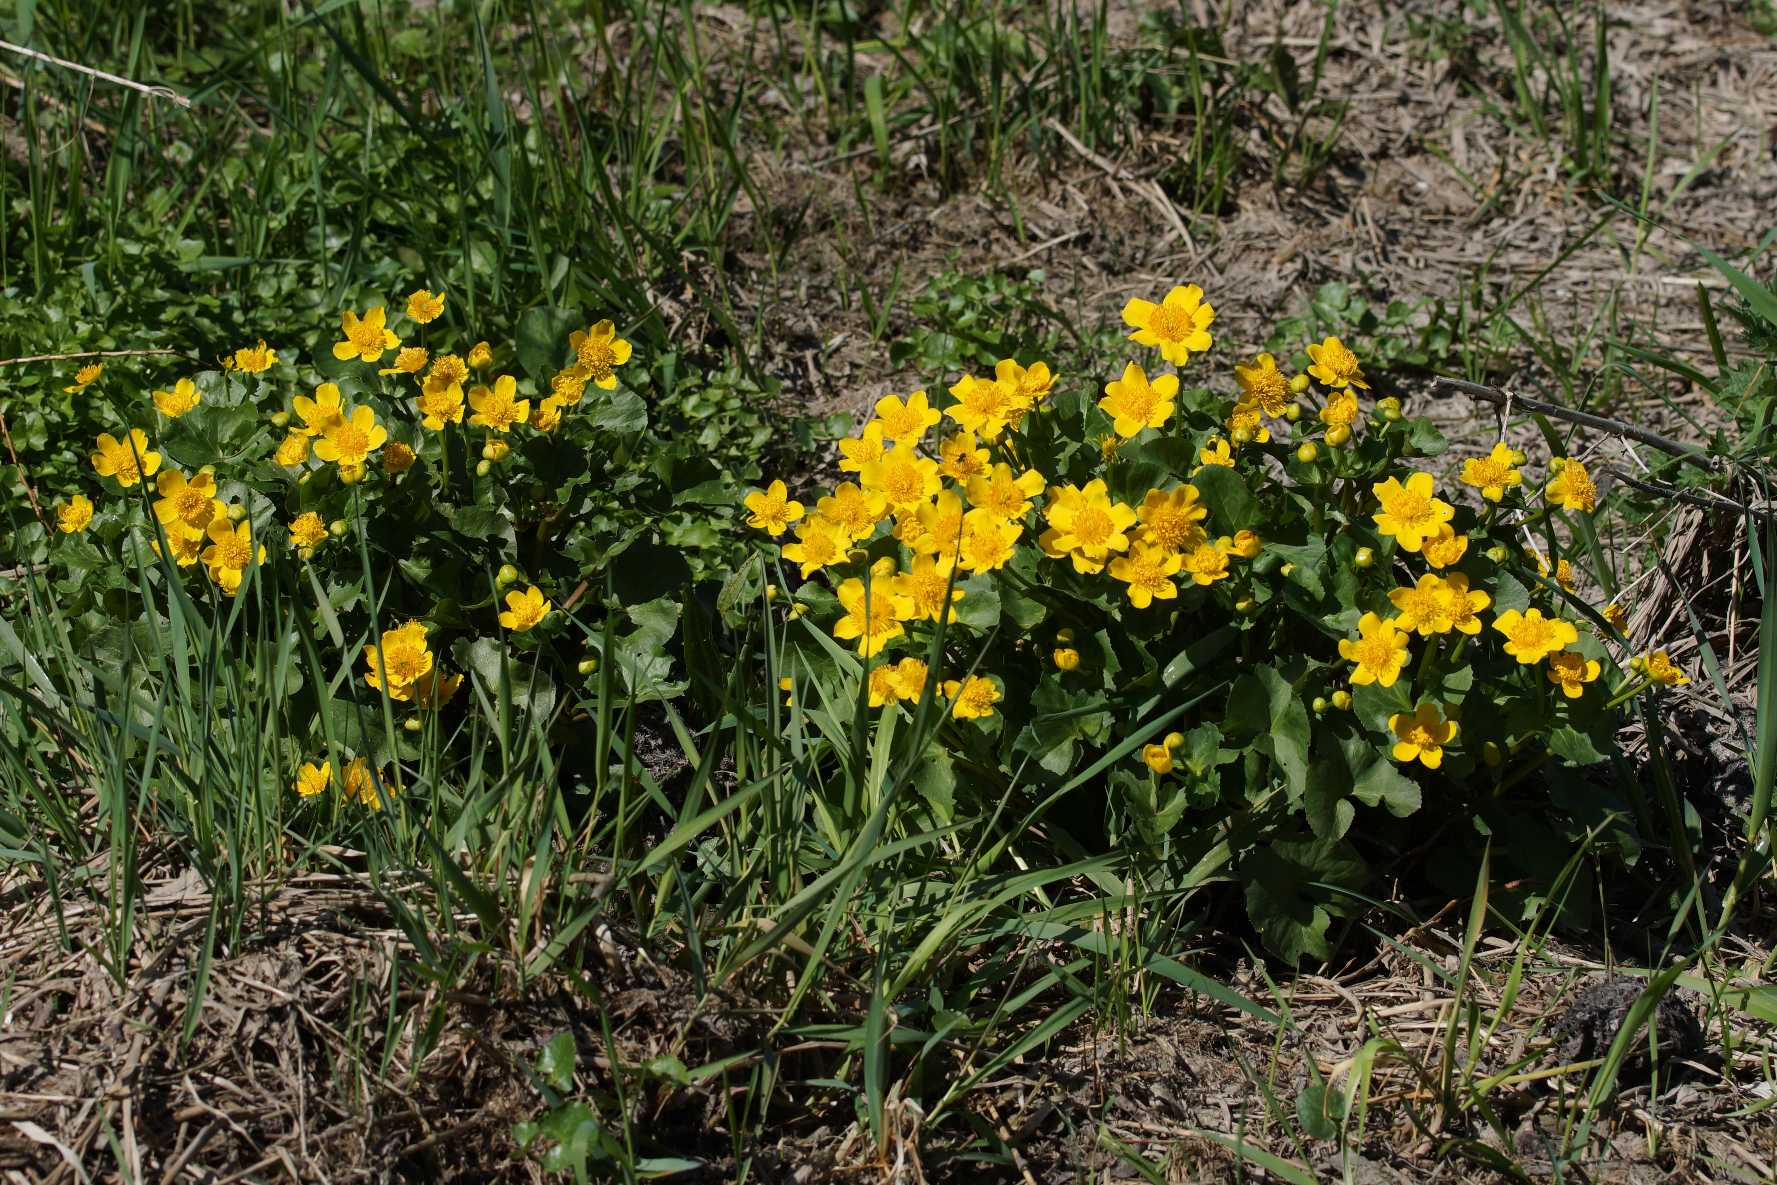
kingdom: Plantae
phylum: Tracheophyta
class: Magnoliopsida
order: Ranunculales
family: Ranunculaceae
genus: Caltha
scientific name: Caltha palustris
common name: Eng-kabbeleje
